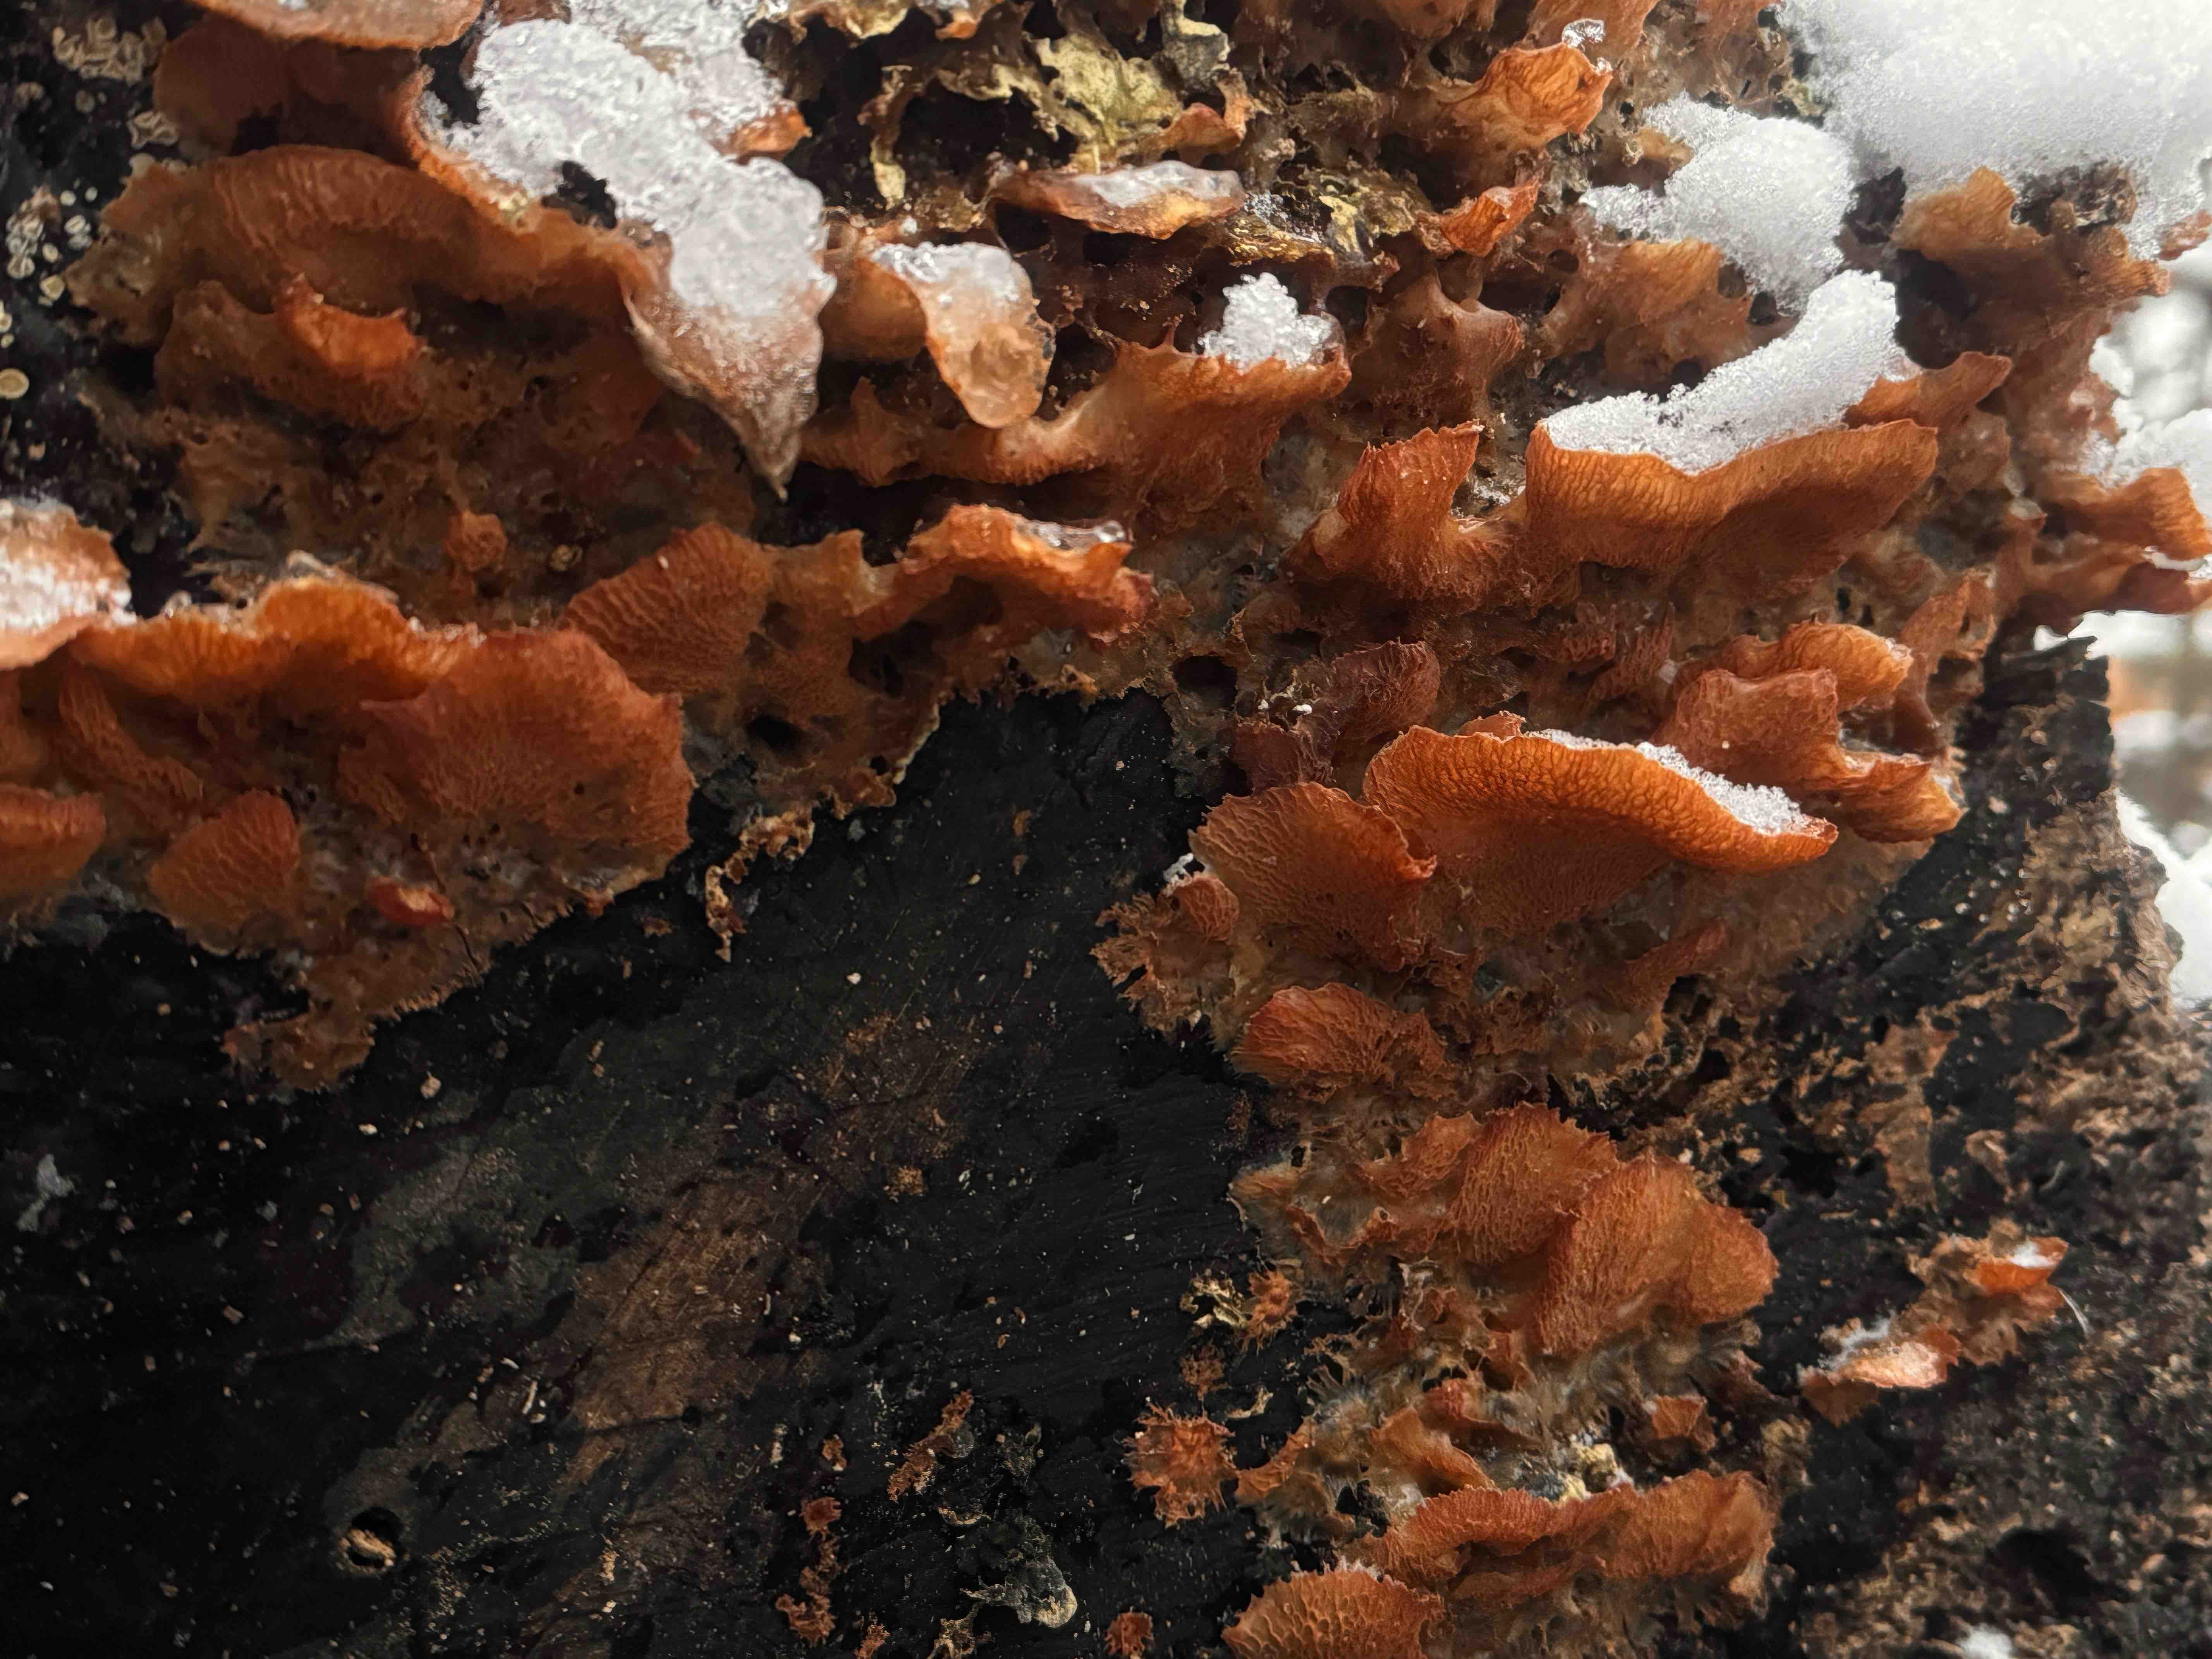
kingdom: Fungi
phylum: Basidiomycota
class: Agaricomycetes
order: Polyporales
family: Meruliaceae
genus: Phlebia
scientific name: Phlebia tremellosa
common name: bævrende åresvamp
